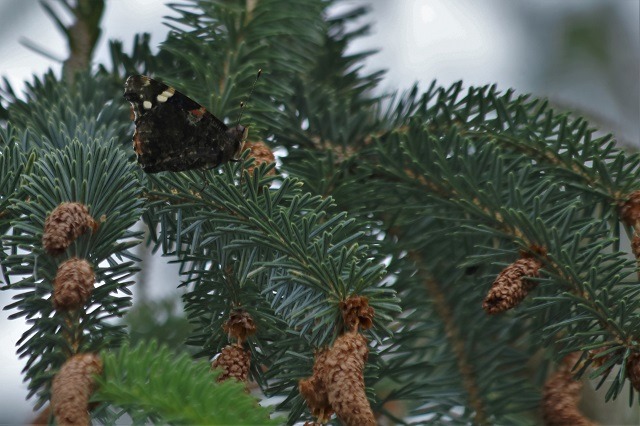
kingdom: Animalia
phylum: Arthropoda
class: Insecta
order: Lepidoptera
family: Nymphalidae
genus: Vanessa
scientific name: Vanessa atalanta
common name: Admiral
